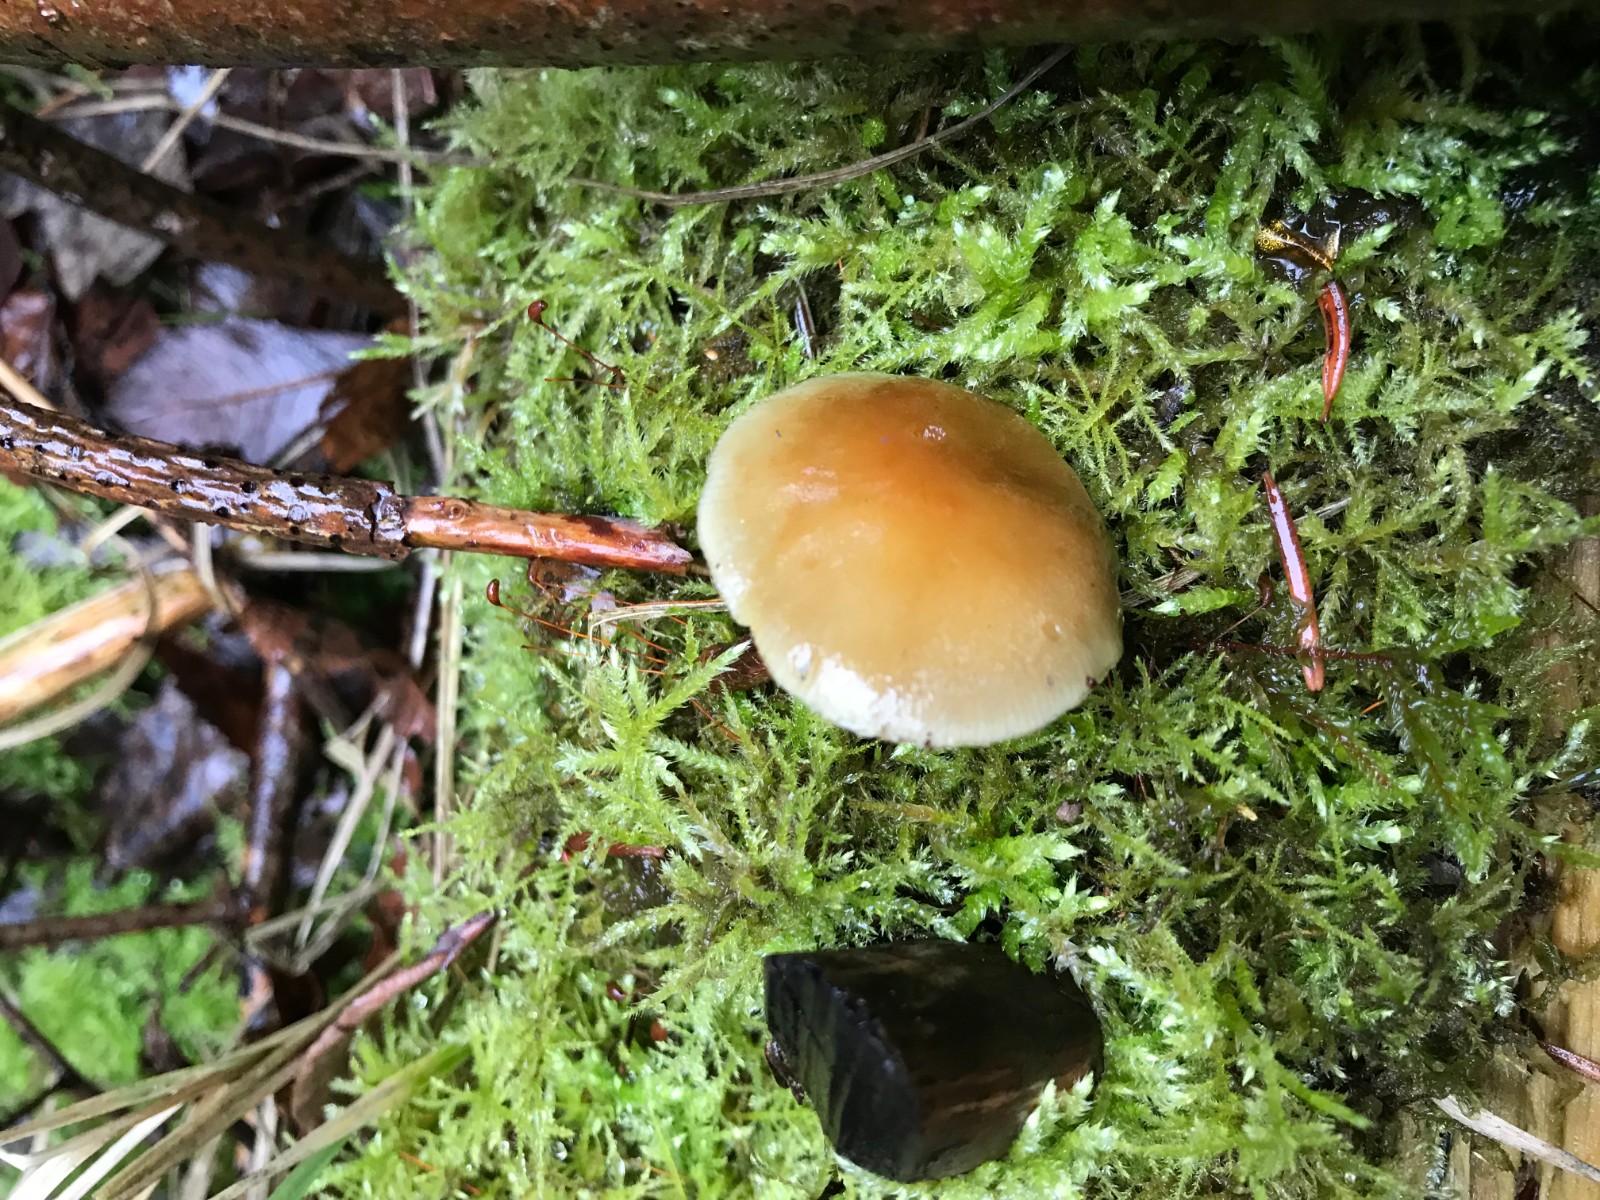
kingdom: Fungi
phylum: Basidiomycota
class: Agaricomycetes
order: Agaricales
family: Strophariaceae
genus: Hypholoma
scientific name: Hypholoma capnoides
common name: gran-svovlhat
